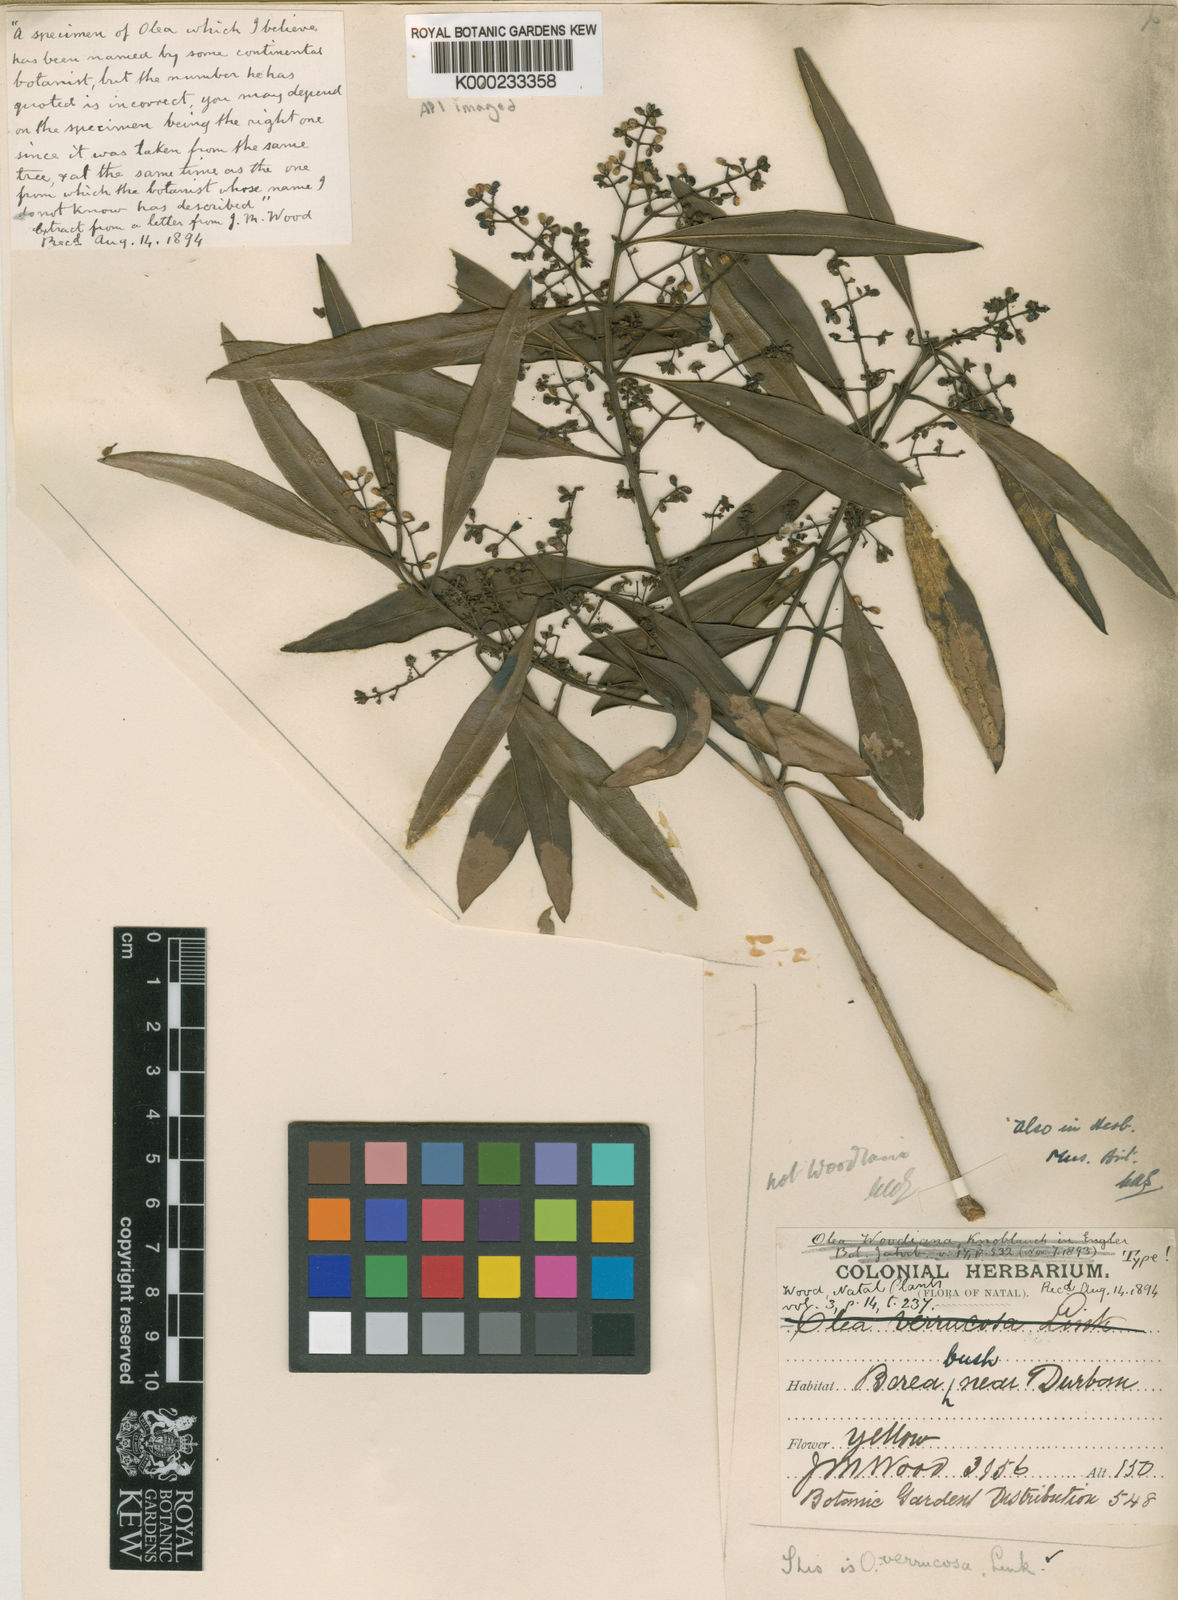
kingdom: Plantae
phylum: Tracheophyta
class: Magnoliopsida
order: Lamiales
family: Oleaceae
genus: Olea
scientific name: Olea woodiana
